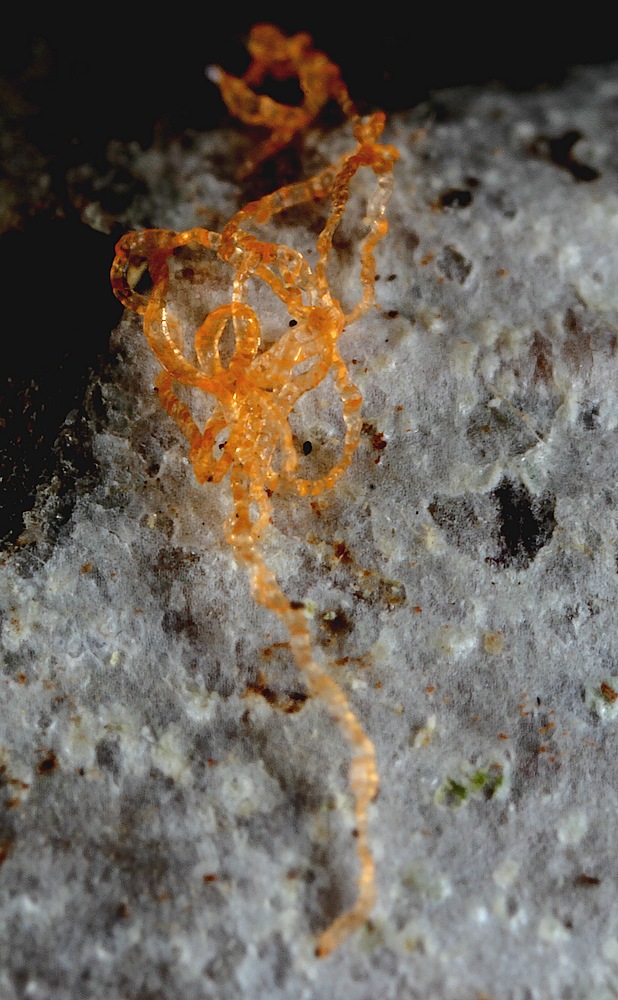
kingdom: Fungi
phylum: Ascomycota
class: Sordariomycetes
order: Xylariales
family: Diatrypaceae
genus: Diatrypella
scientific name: Diatrypella quercina
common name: ege-kulskorpe
